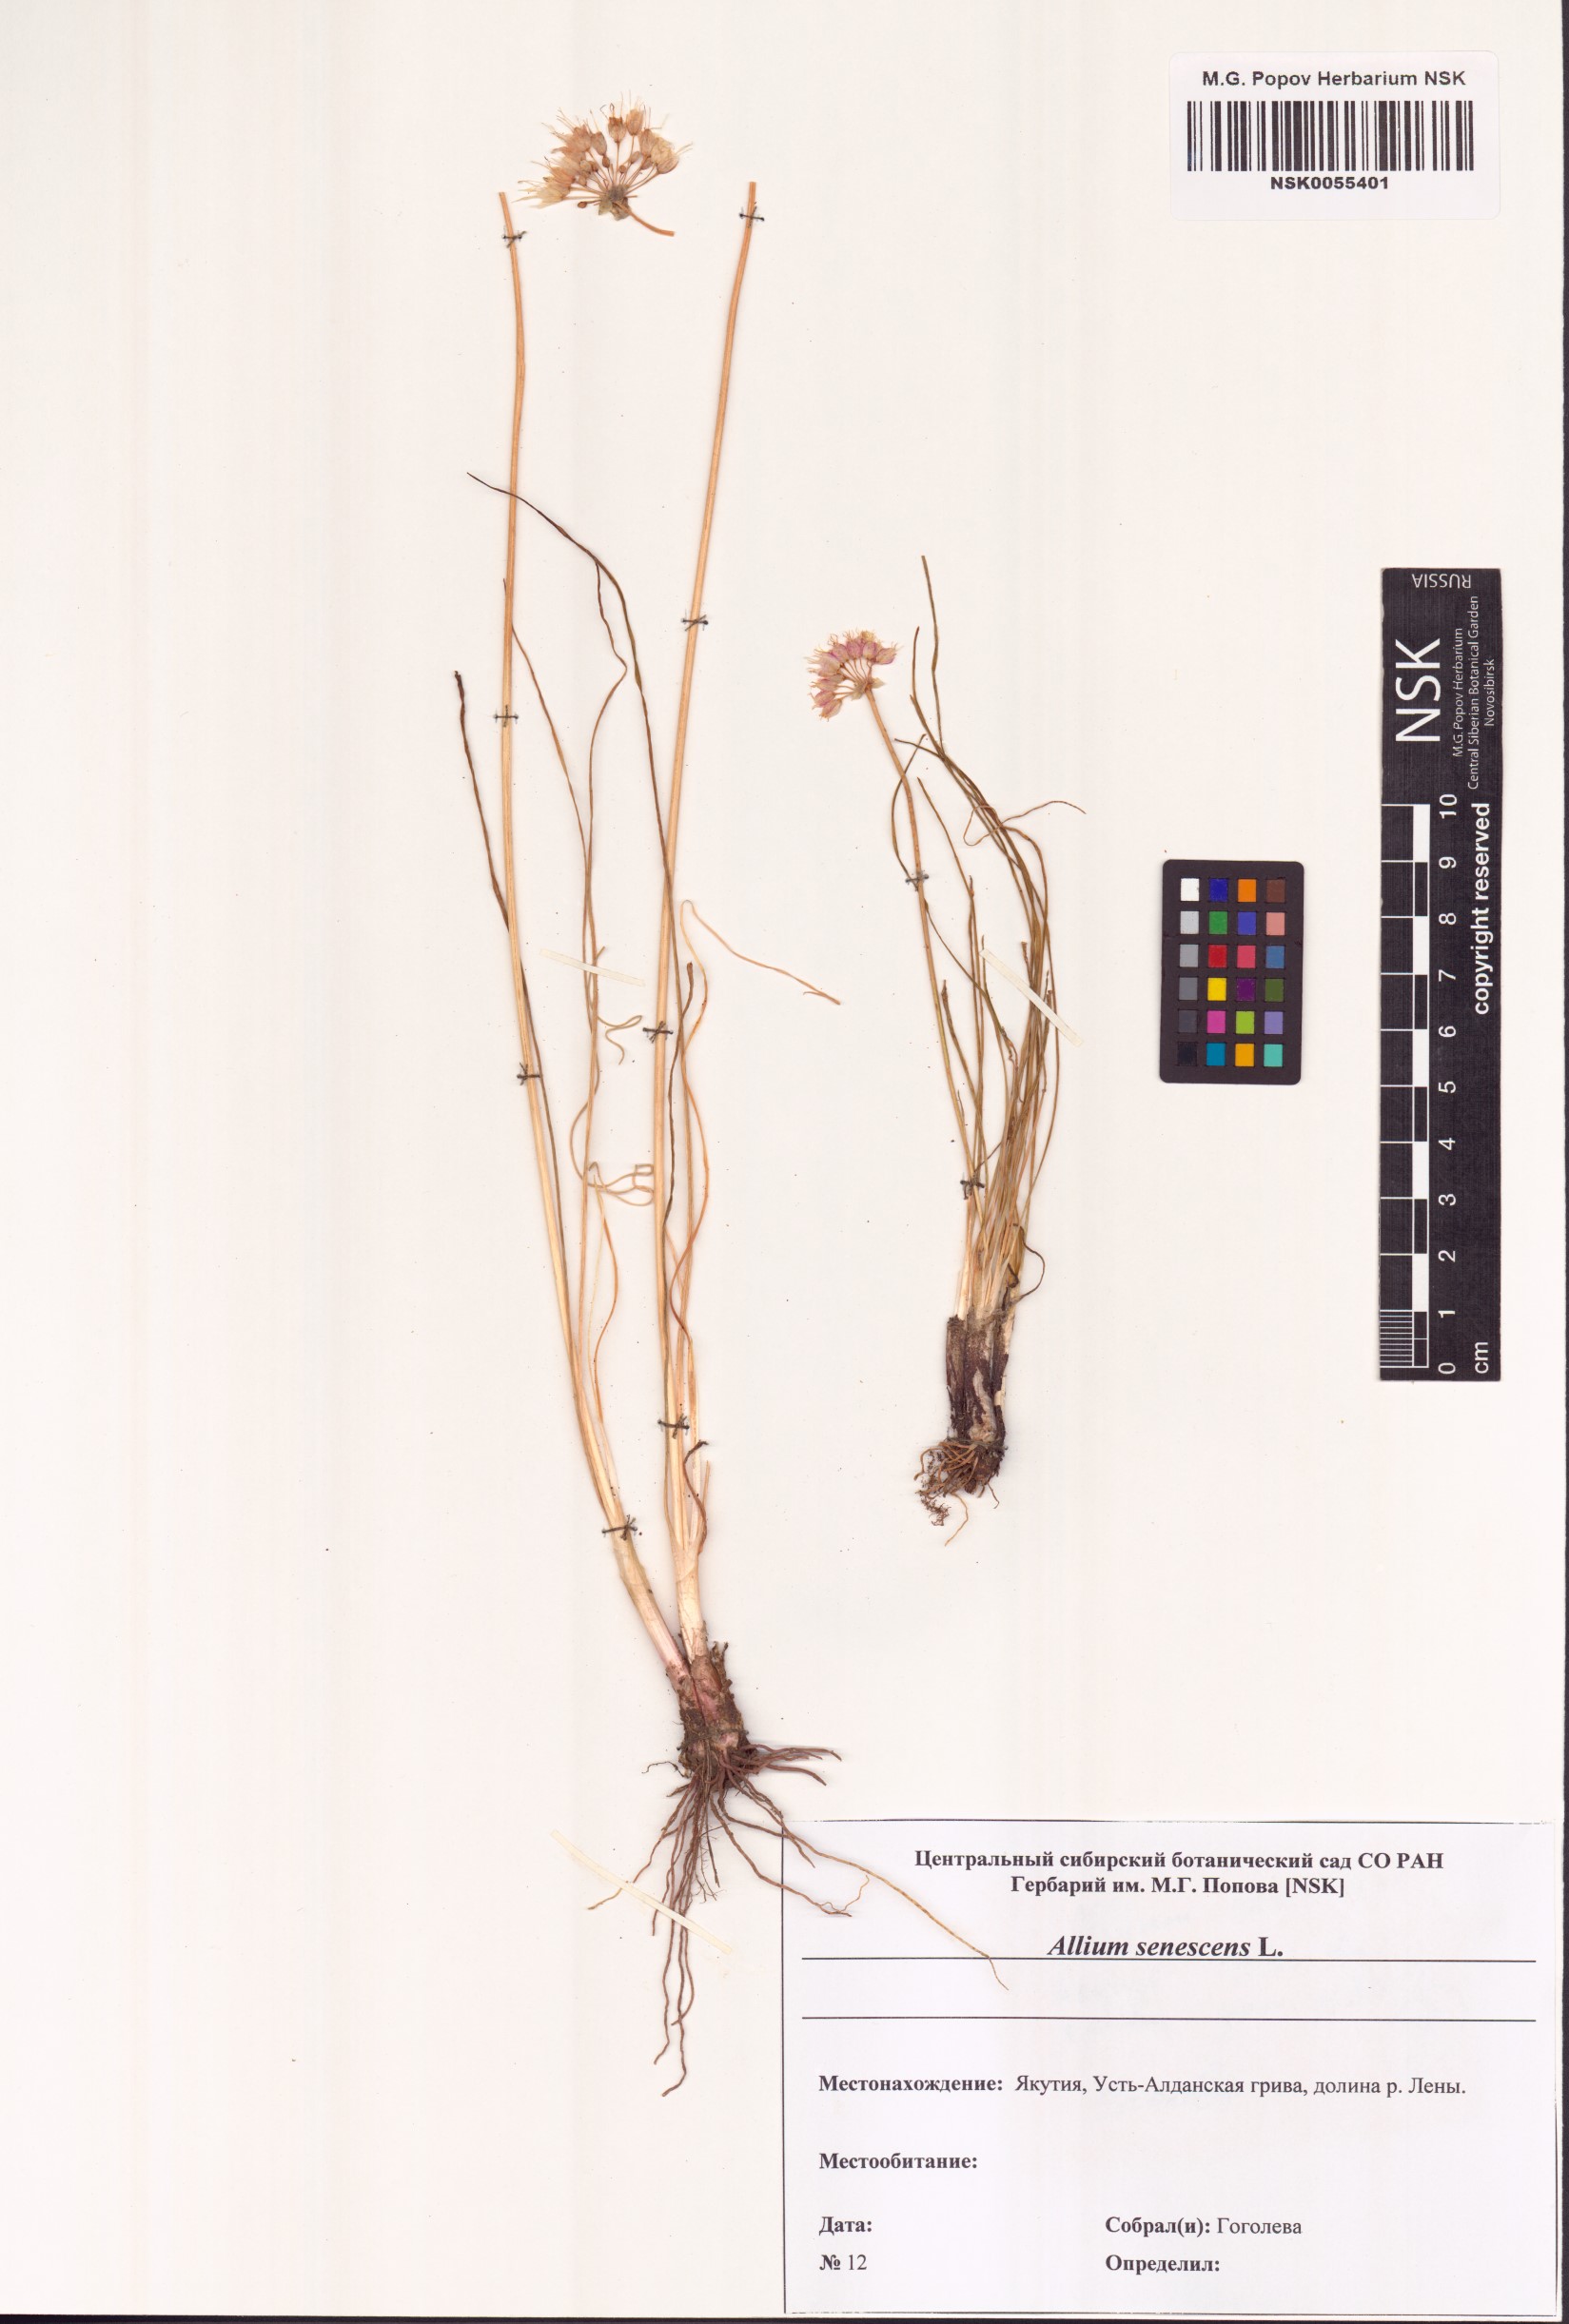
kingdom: Plantae
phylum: Tracheophyta
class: Liliopsida
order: Asparagales
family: Amaryllidaceae
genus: Allium
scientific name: Allium senescens
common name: German garlic
